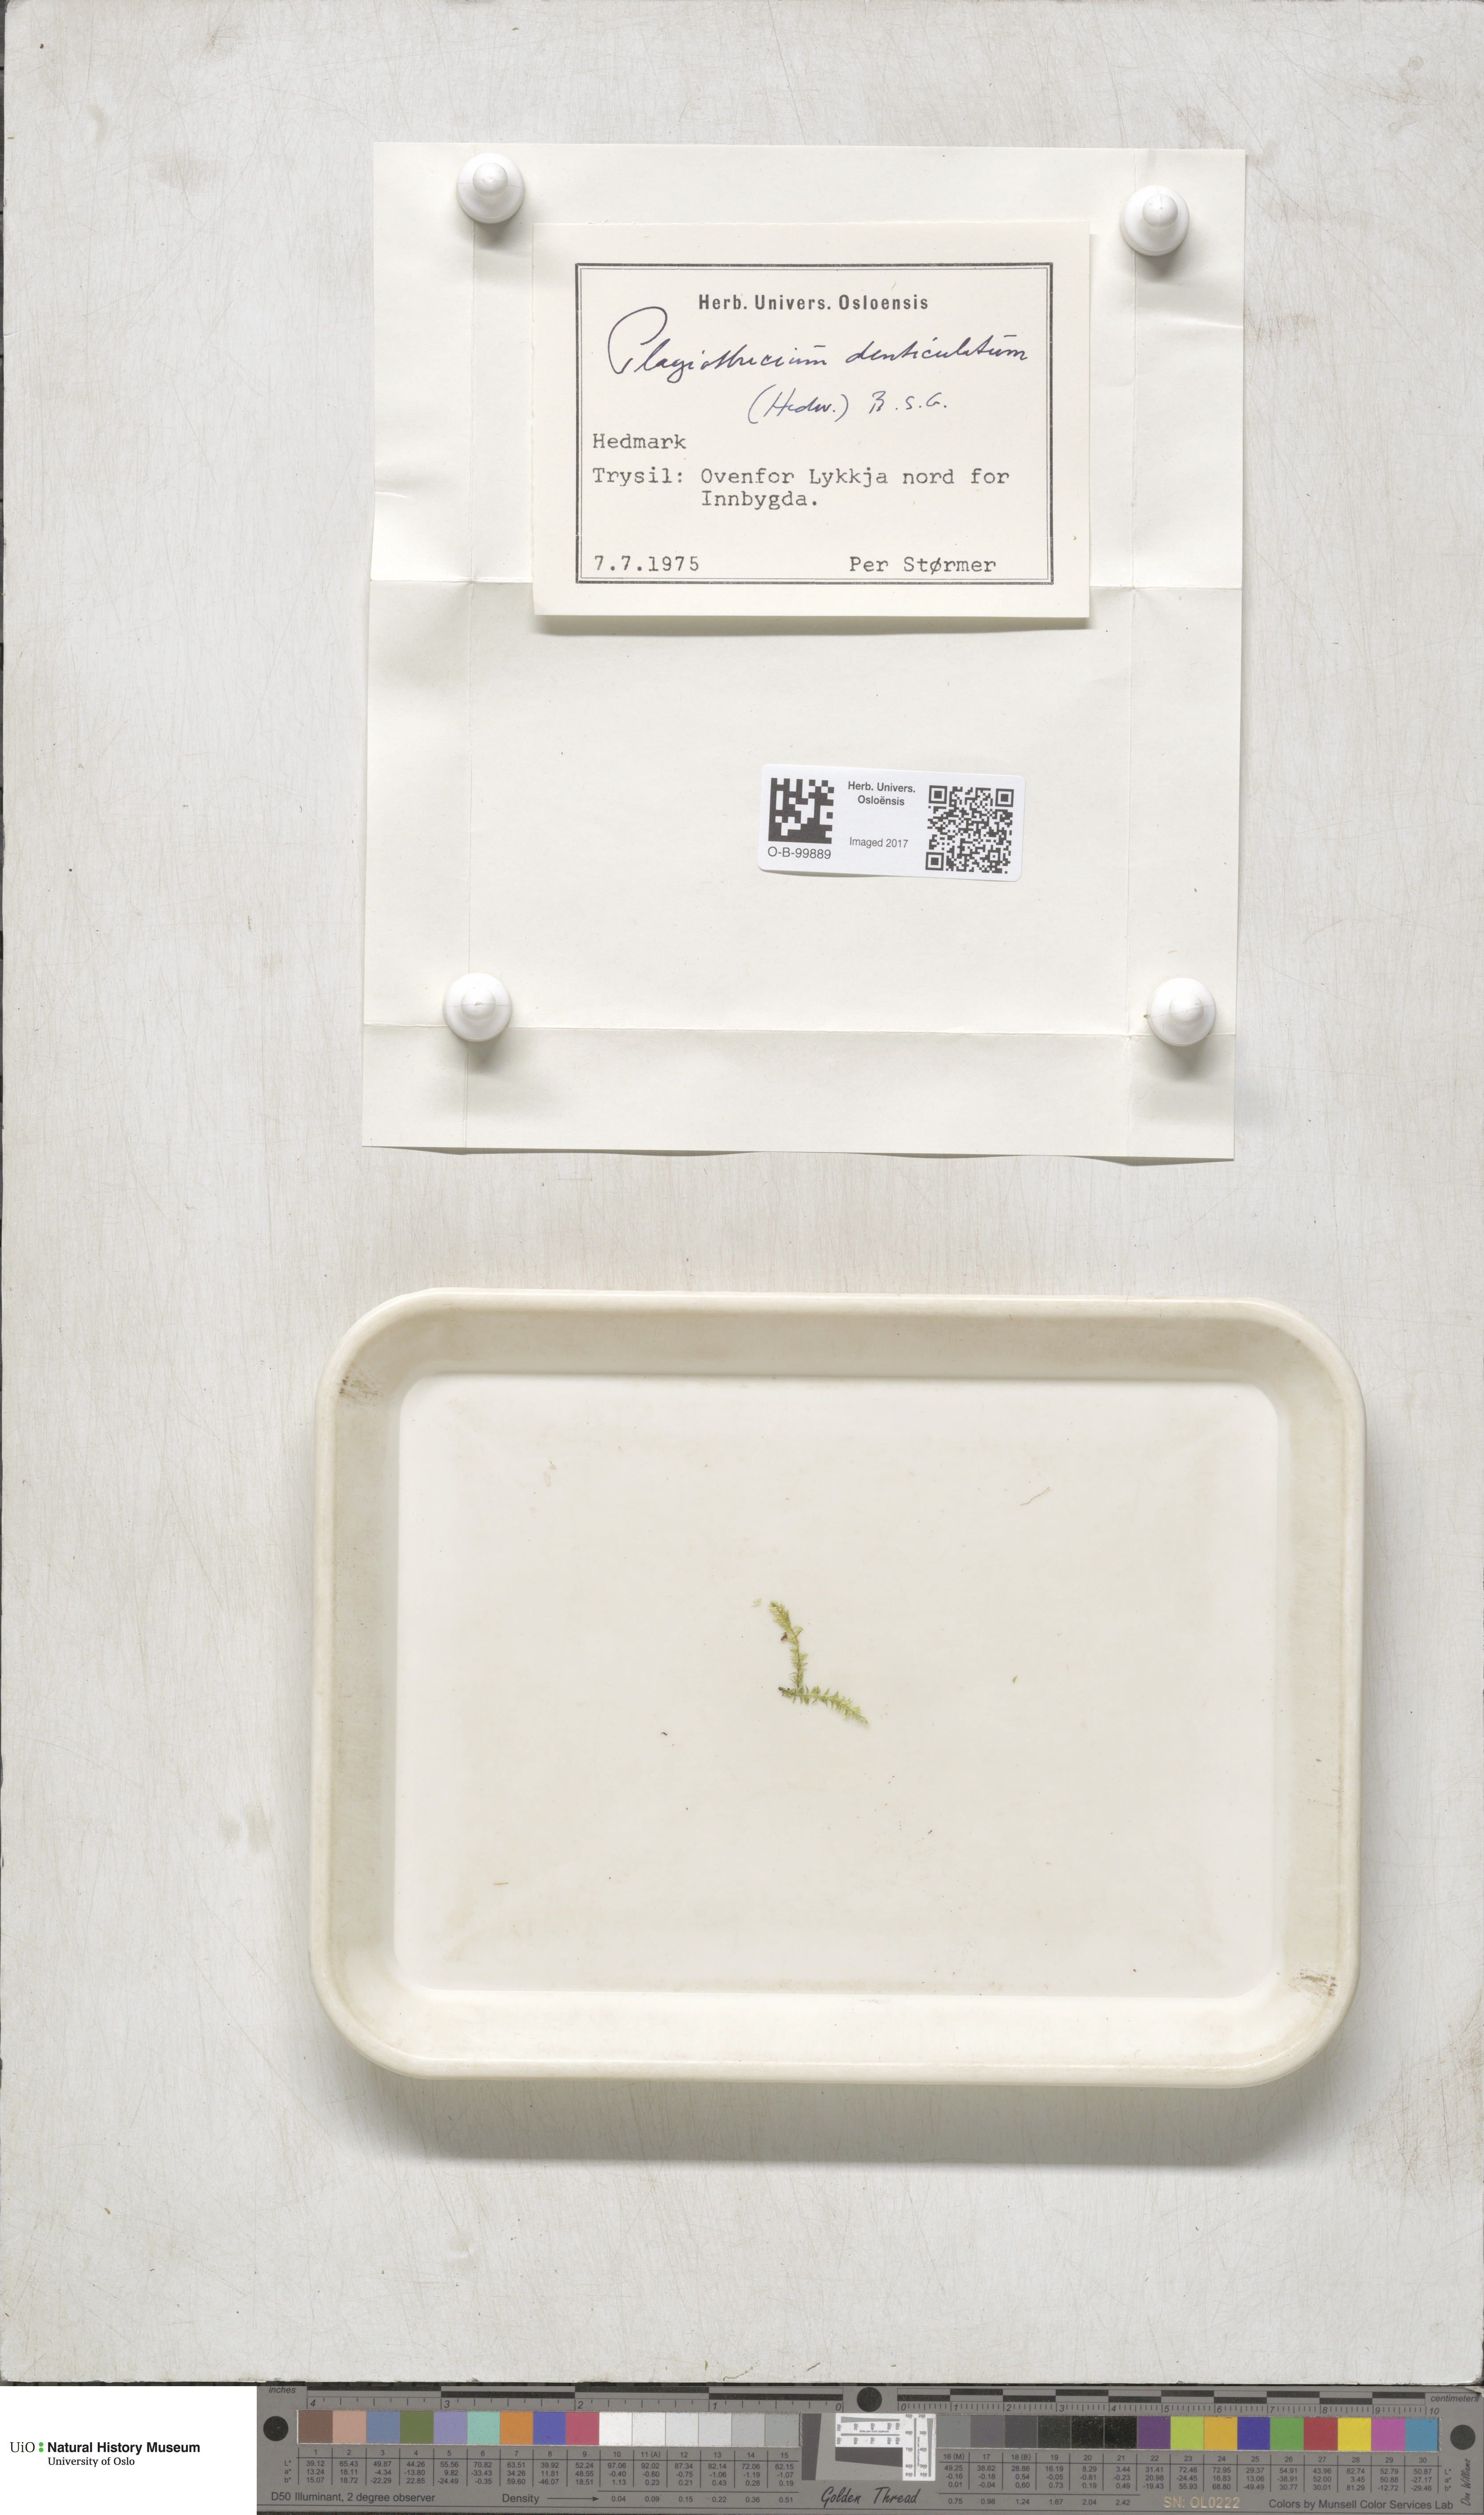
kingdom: Plantae
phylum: Bryophyta
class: Bryopsida
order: Hypnales
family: Plagiotheciaceae
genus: Plagiothecium
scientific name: Plagiothecium denticulatum
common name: Dented silk moss
